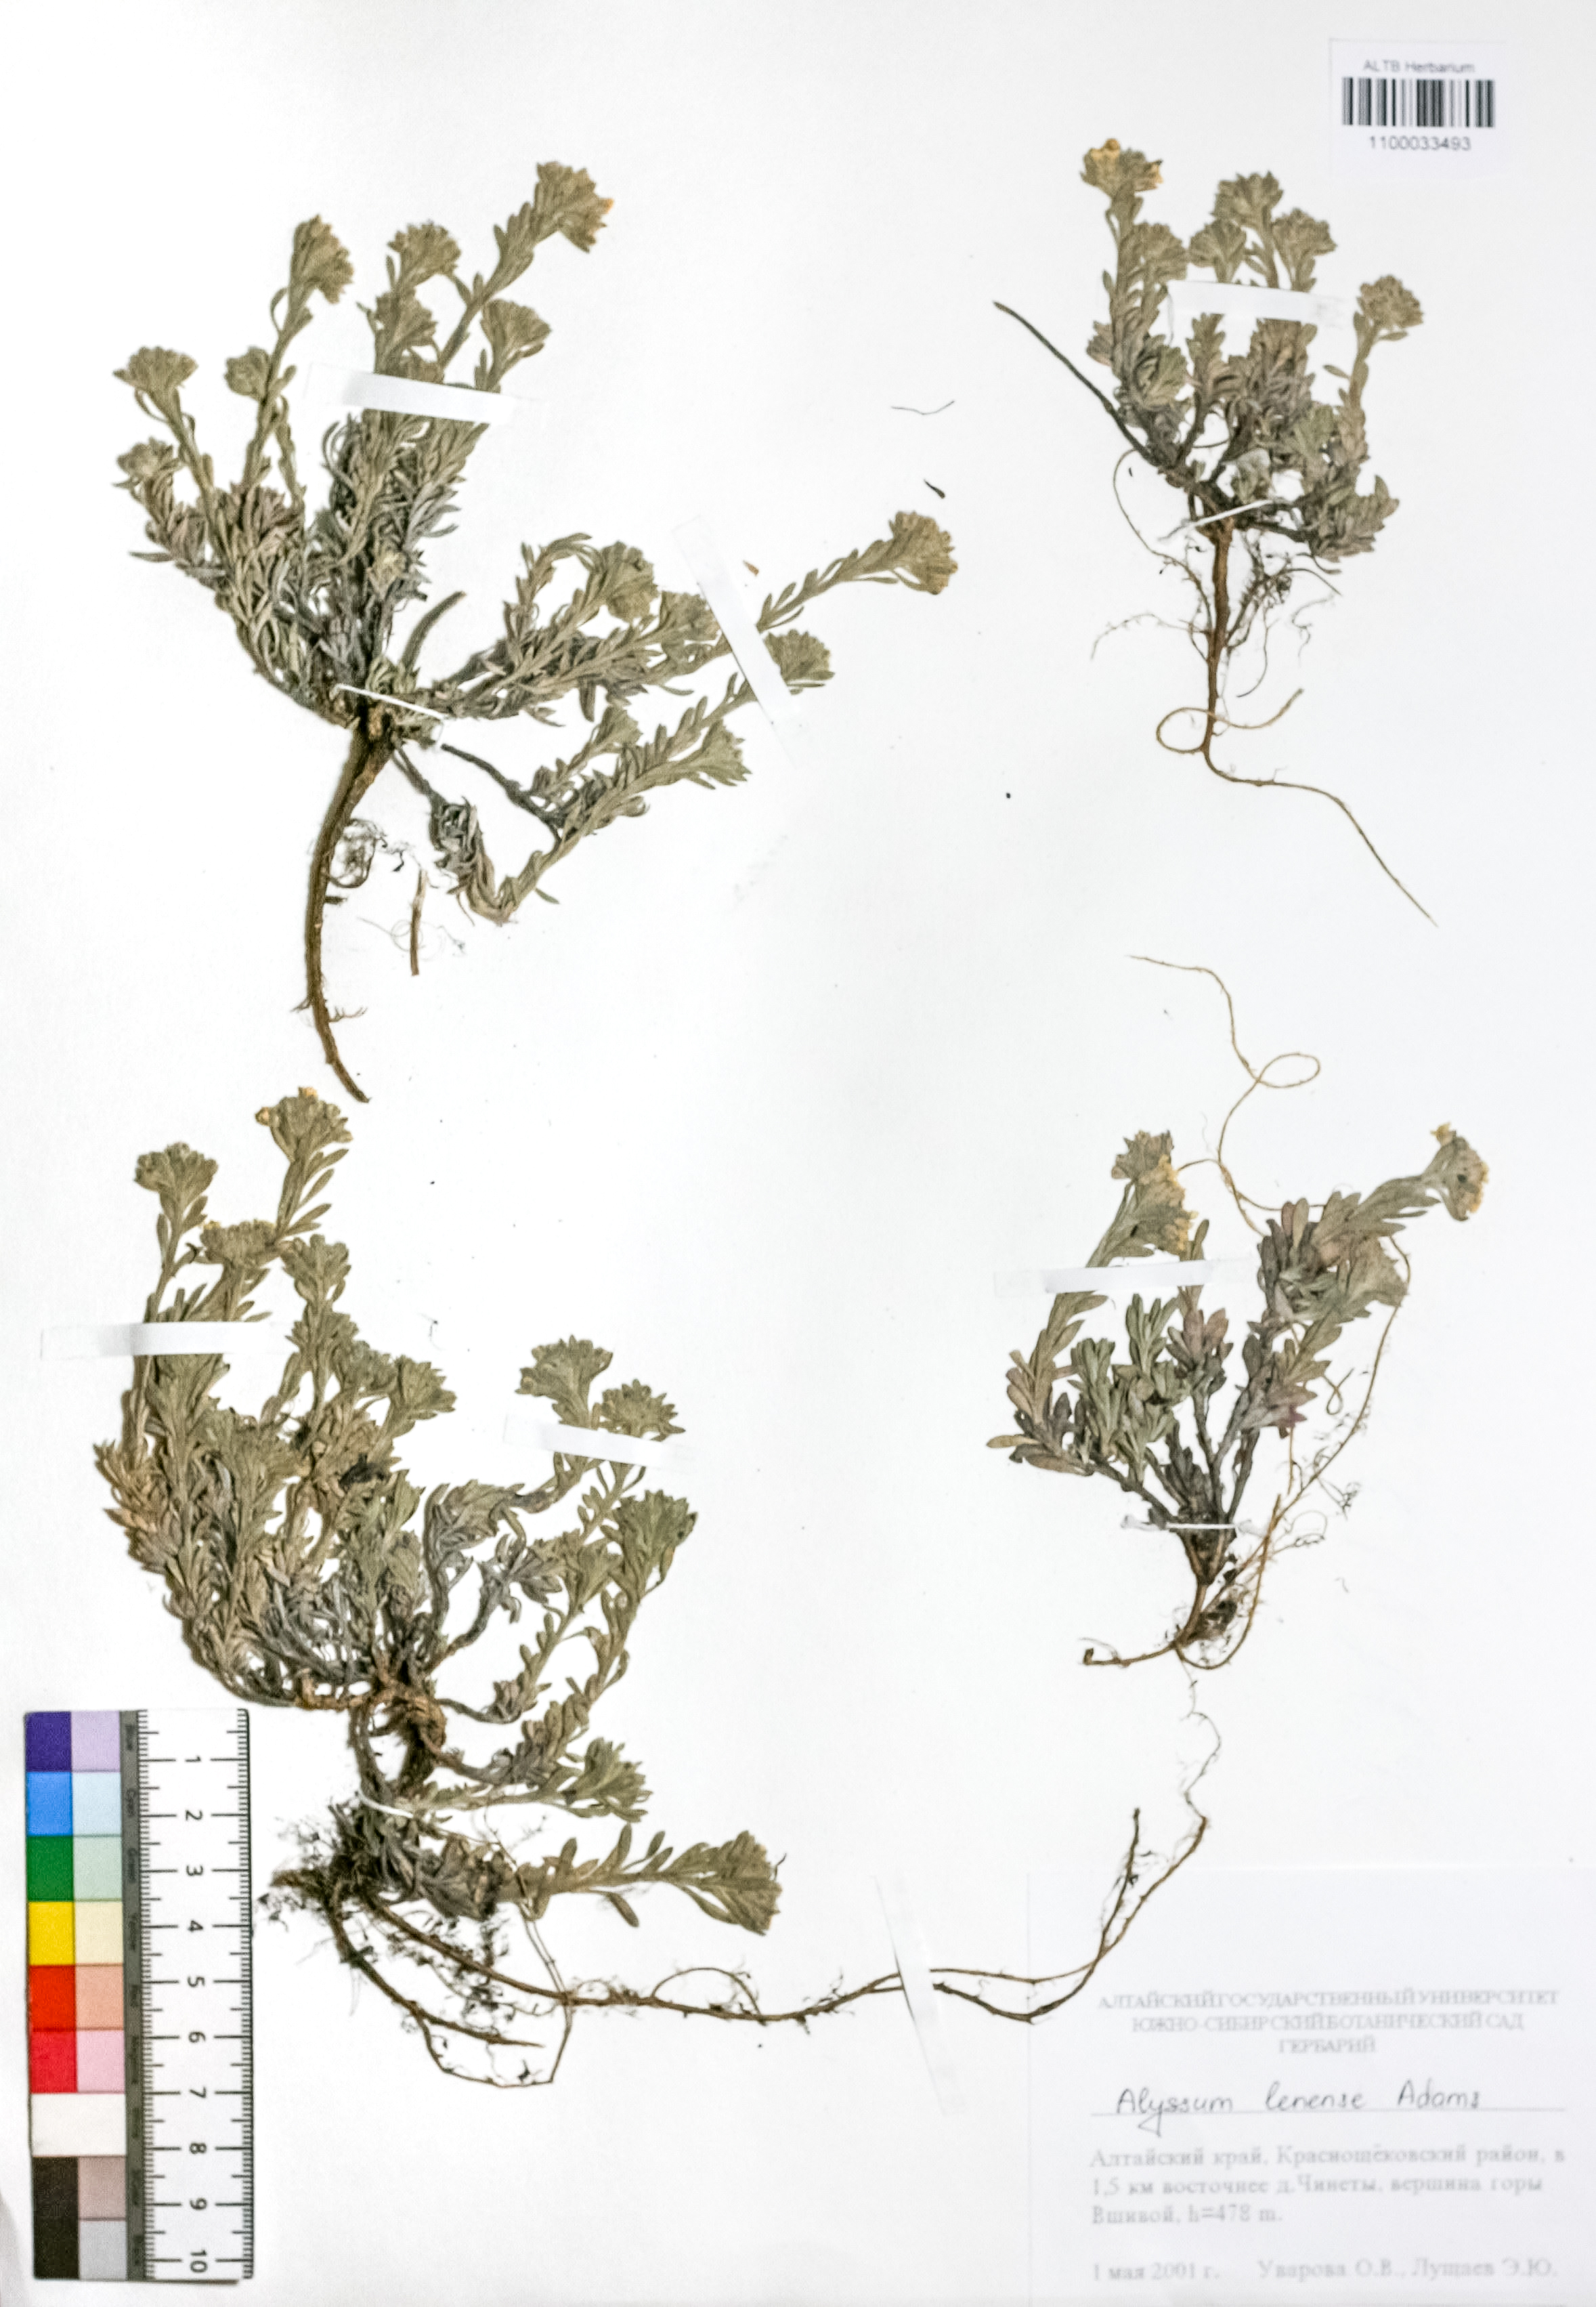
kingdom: Plantae
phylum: Tracheophyta
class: Magnoliopsida
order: Brassicales
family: Brassicaceae
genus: Alyssum
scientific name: Alyssum lenense
